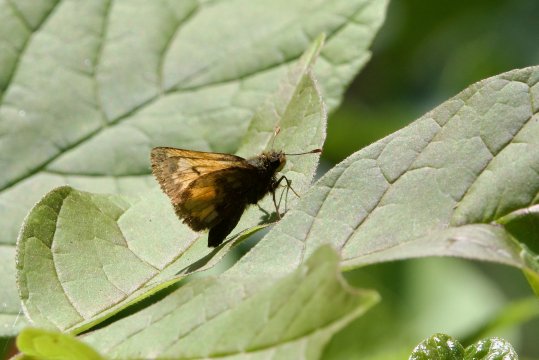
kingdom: Animalia
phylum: Arthropoda
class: Insecta
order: Lepidoptera
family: Hesperiidae
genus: Lon
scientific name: Lon hobomok
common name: Hobomok Skipper
